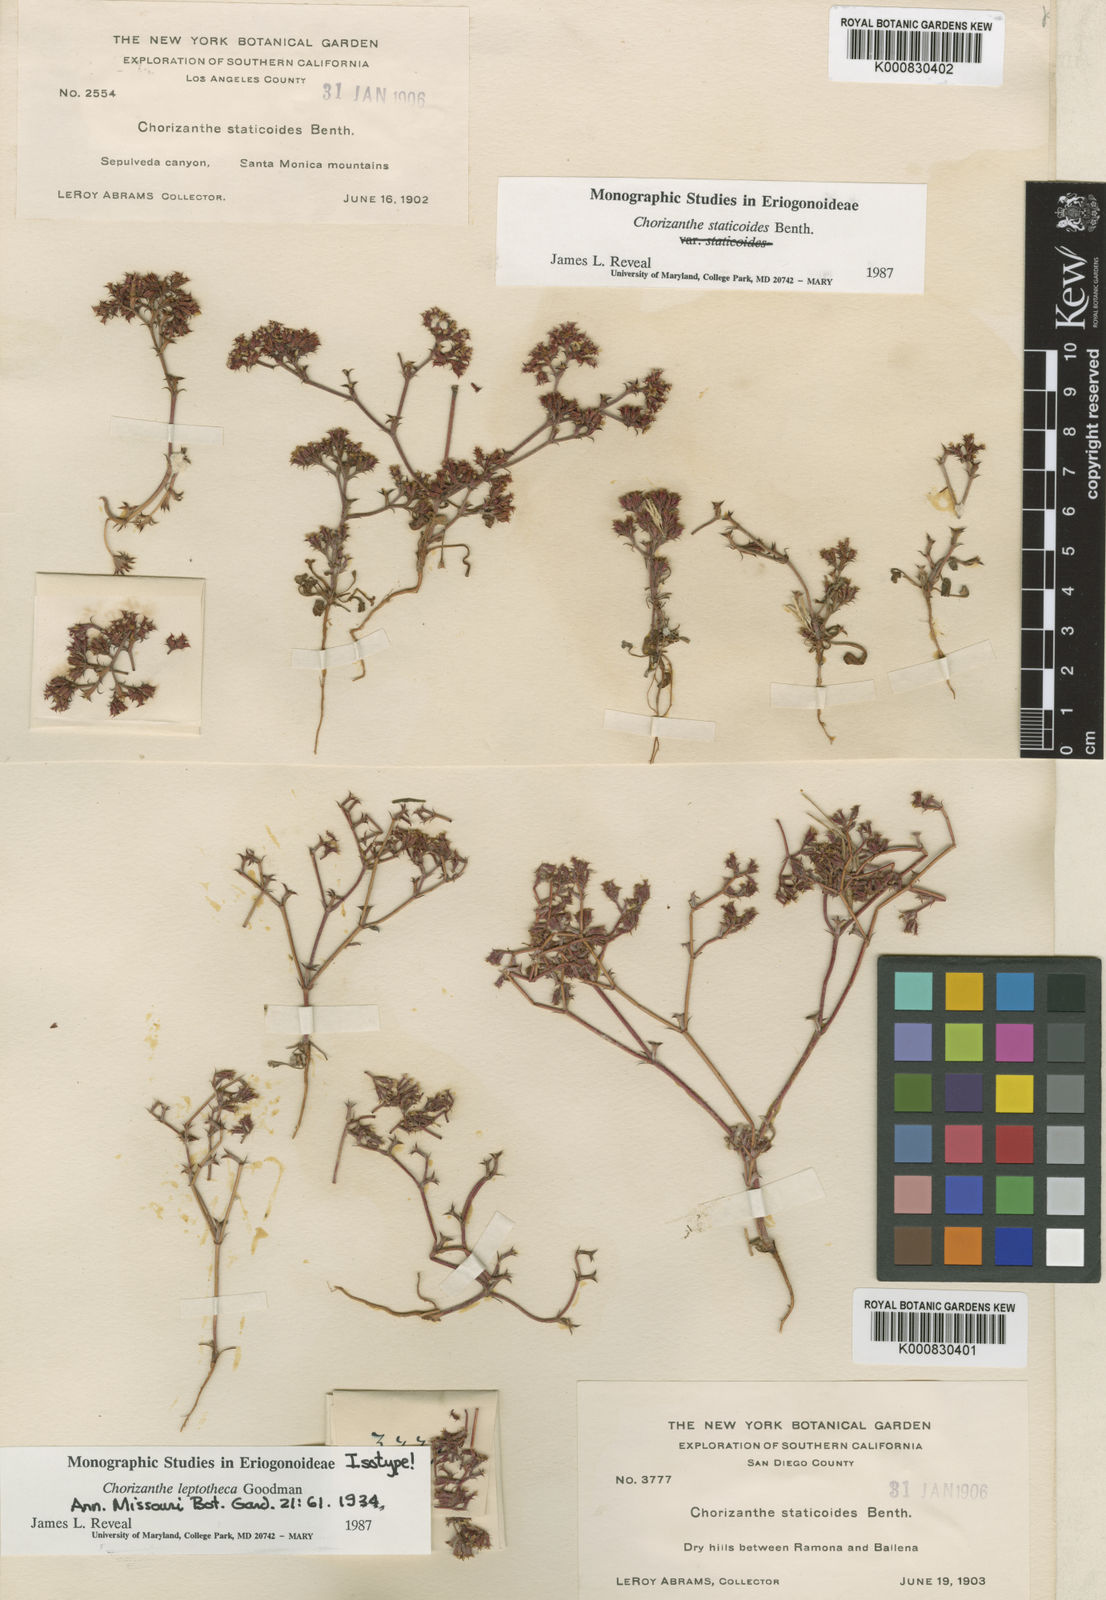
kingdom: Plantae
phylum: Tracheophyta
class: Magnoliopsida
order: Caryophyllales
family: Polygonaceae
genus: Chorizanthe
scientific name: Chorizanthe leptotheca
